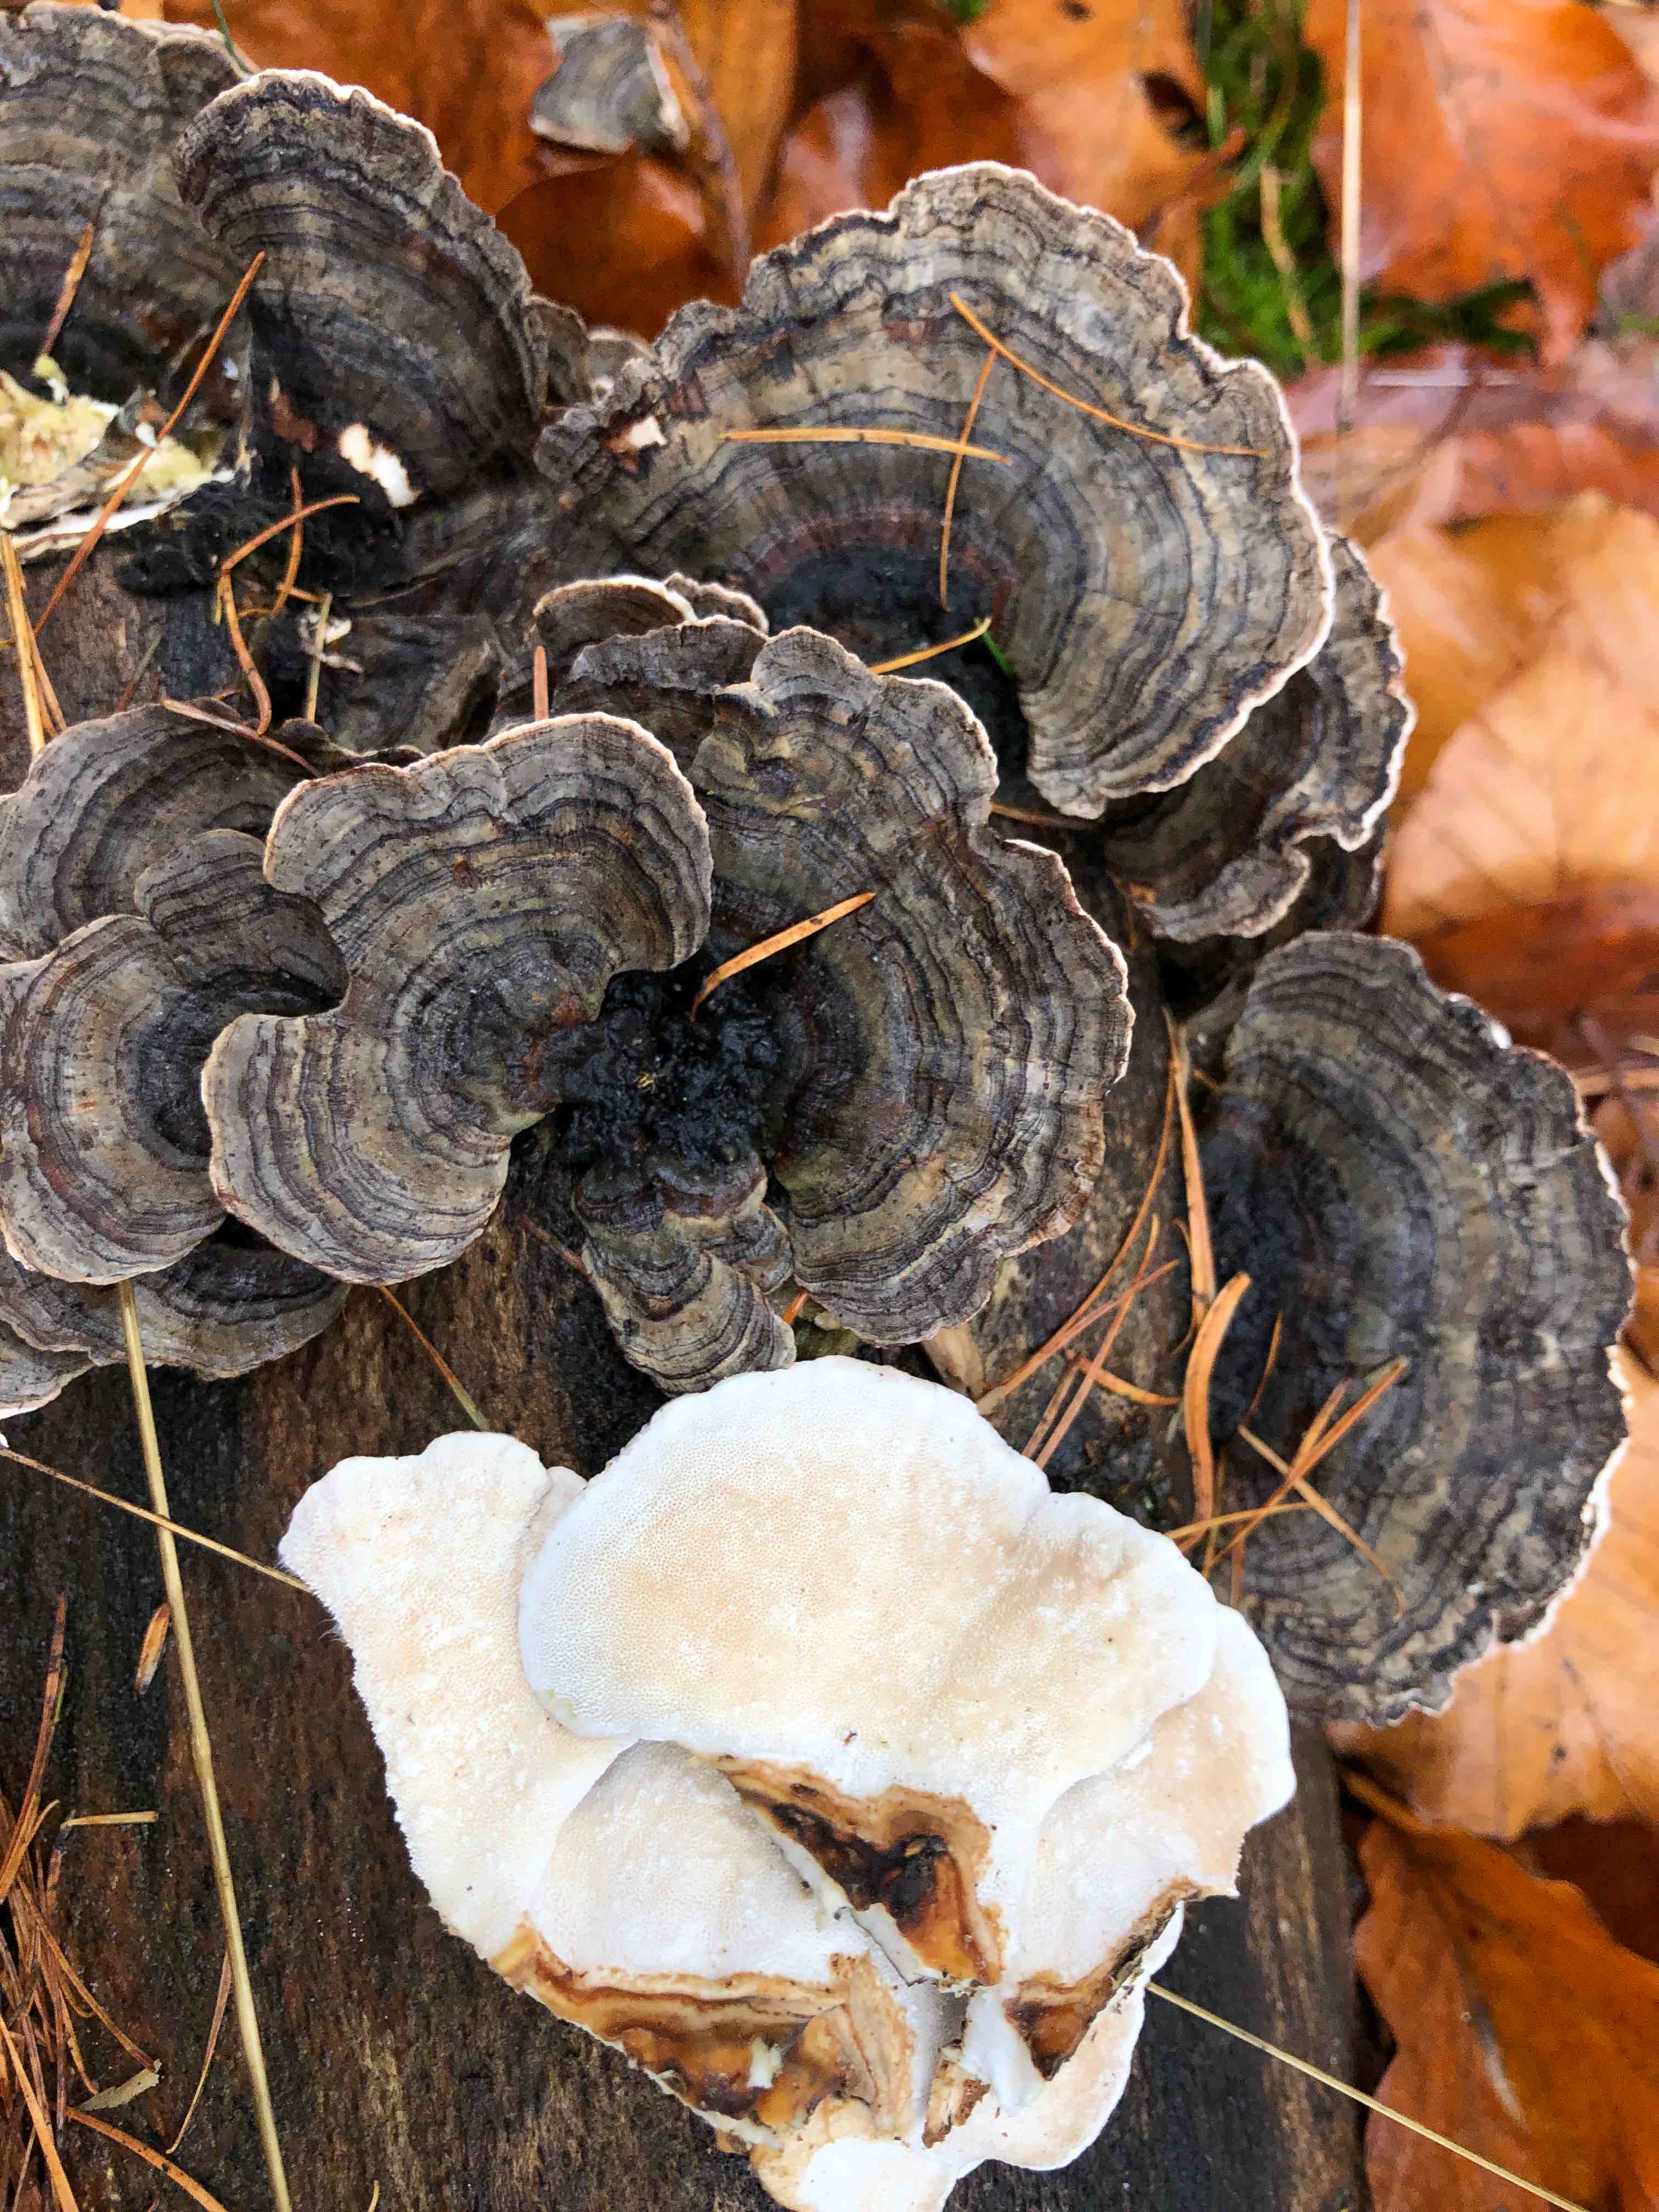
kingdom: Fungi
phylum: Basidiomycota
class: Agaricomycetes
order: Polyporales
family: Polyporaceae
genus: Trametes
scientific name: Trametes versicolor
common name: broget læderporesvamp
